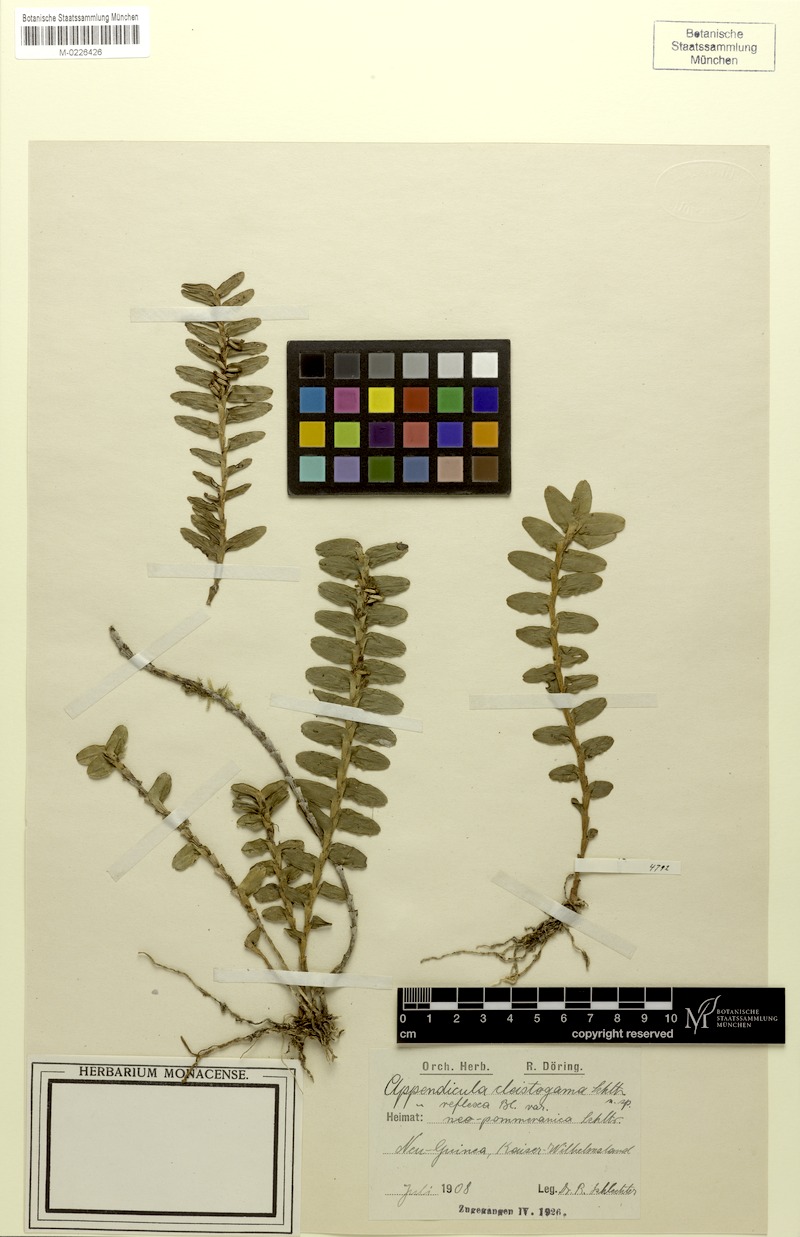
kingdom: Plantae
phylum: Tracheophyta
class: Liliopsida
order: Asparagales
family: Orchidaceae
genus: Appendicula
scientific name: Appendicula reflexa
